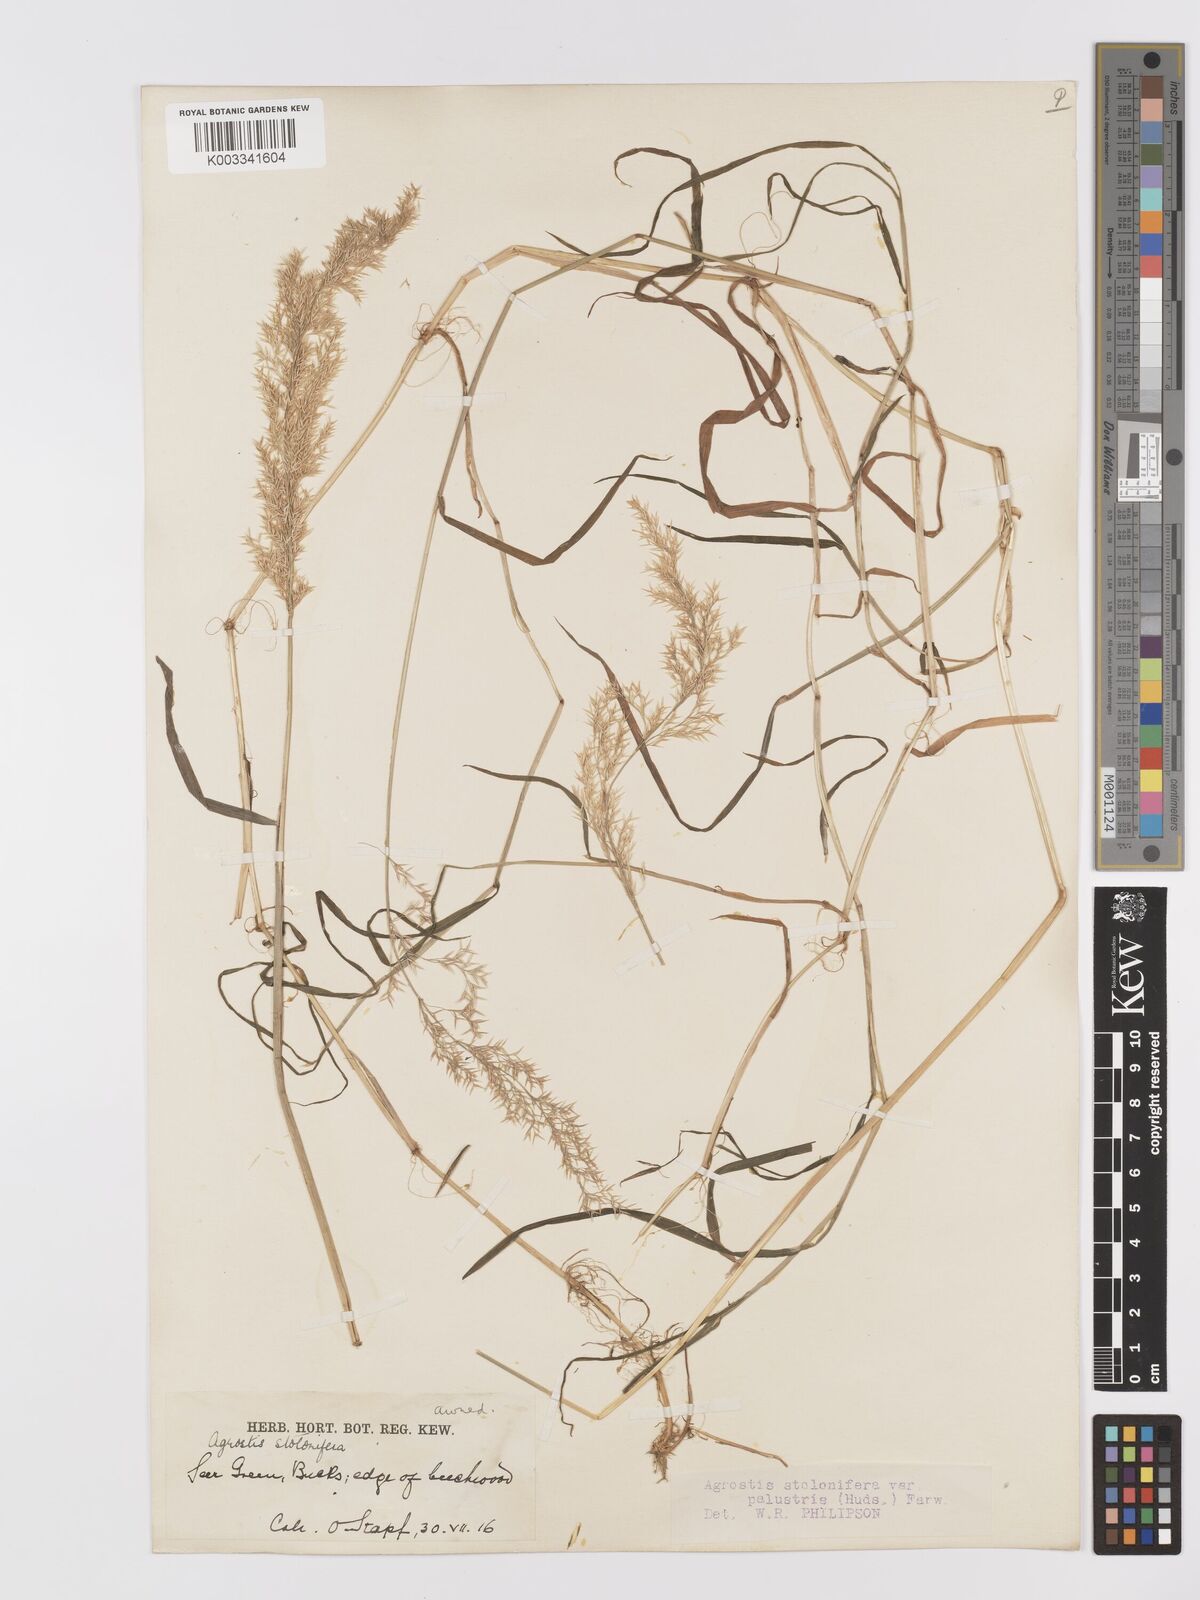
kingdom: Plantae
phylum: Tracheophyta
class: Liliopsida
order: Poales
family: Poaceae
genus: Agrostis
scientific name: Agrostis stolonifera
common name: Creeping bentgrass
